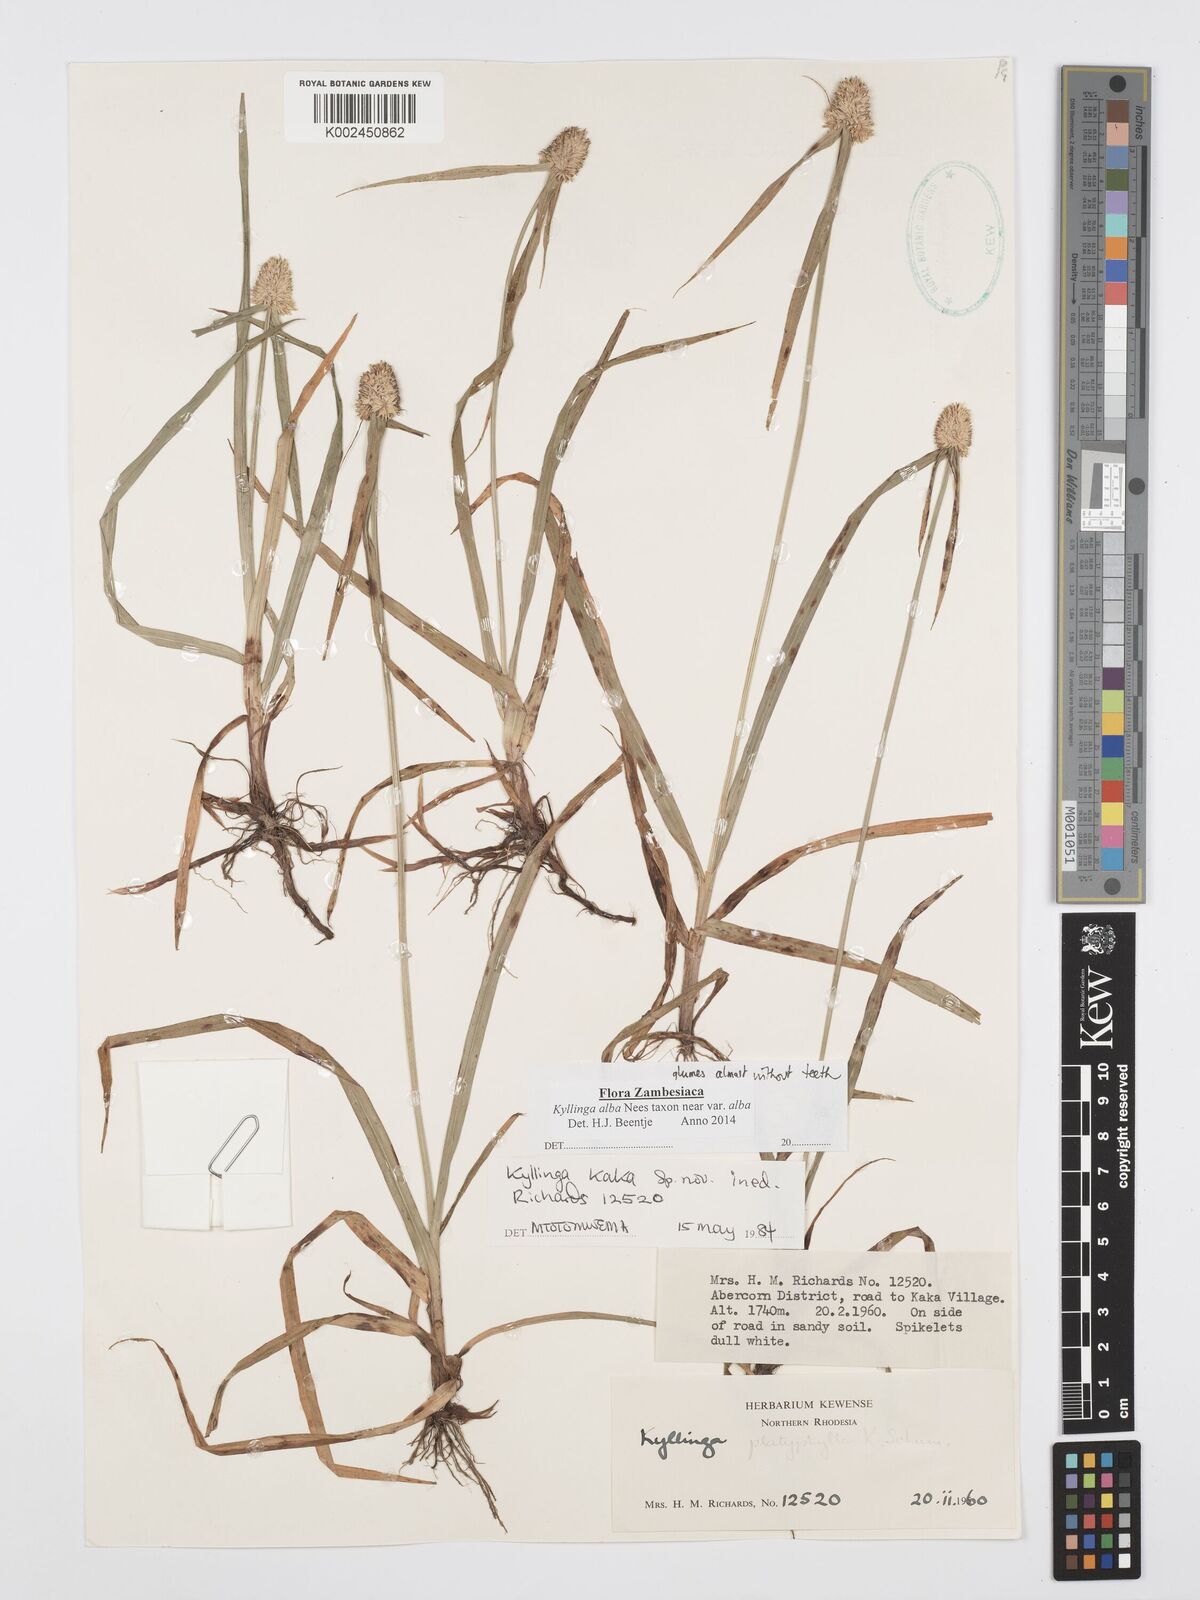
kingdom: Plantae
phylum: Tracheophyta
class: Liliopsida
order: Poales
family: Cyperaceae
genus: Cyperus
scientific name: Cyperus
